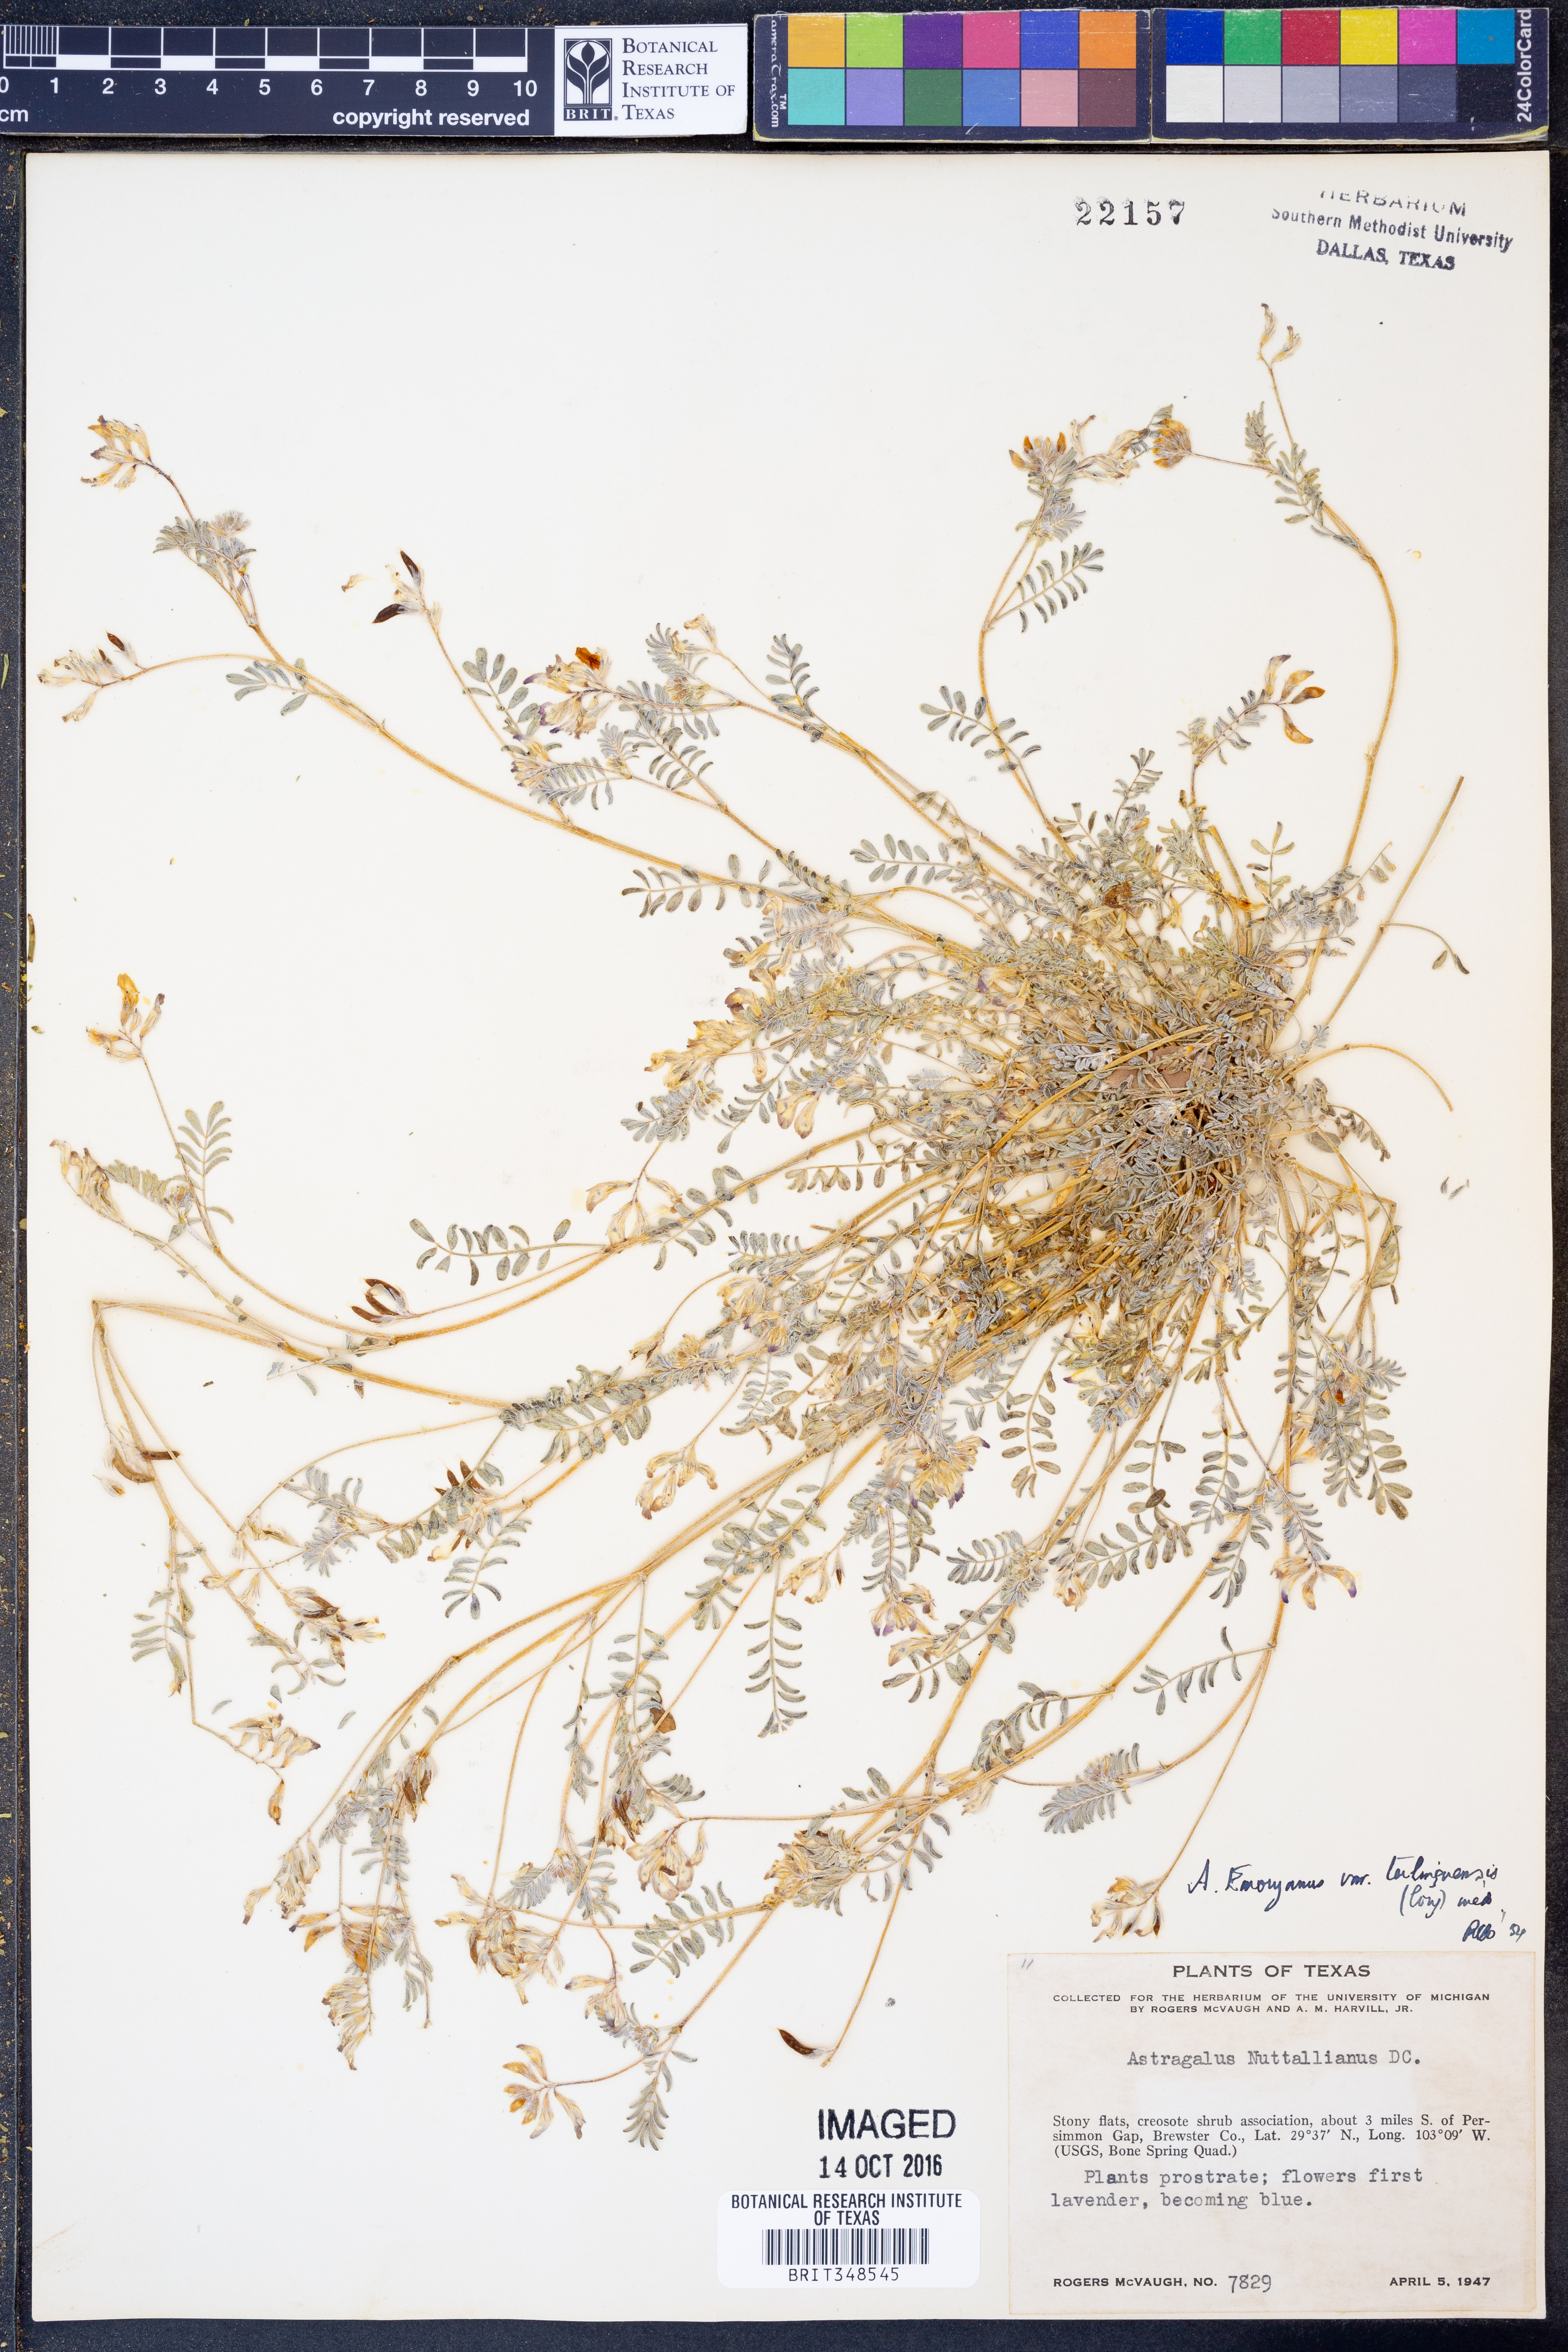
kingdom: Plantae
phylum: Tracheophyta
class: Magnoliopsida
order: Fabales
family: Fabaceae
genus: Astragalus
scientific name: Astragalus emoryanus
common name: Emory's milk-vetch
